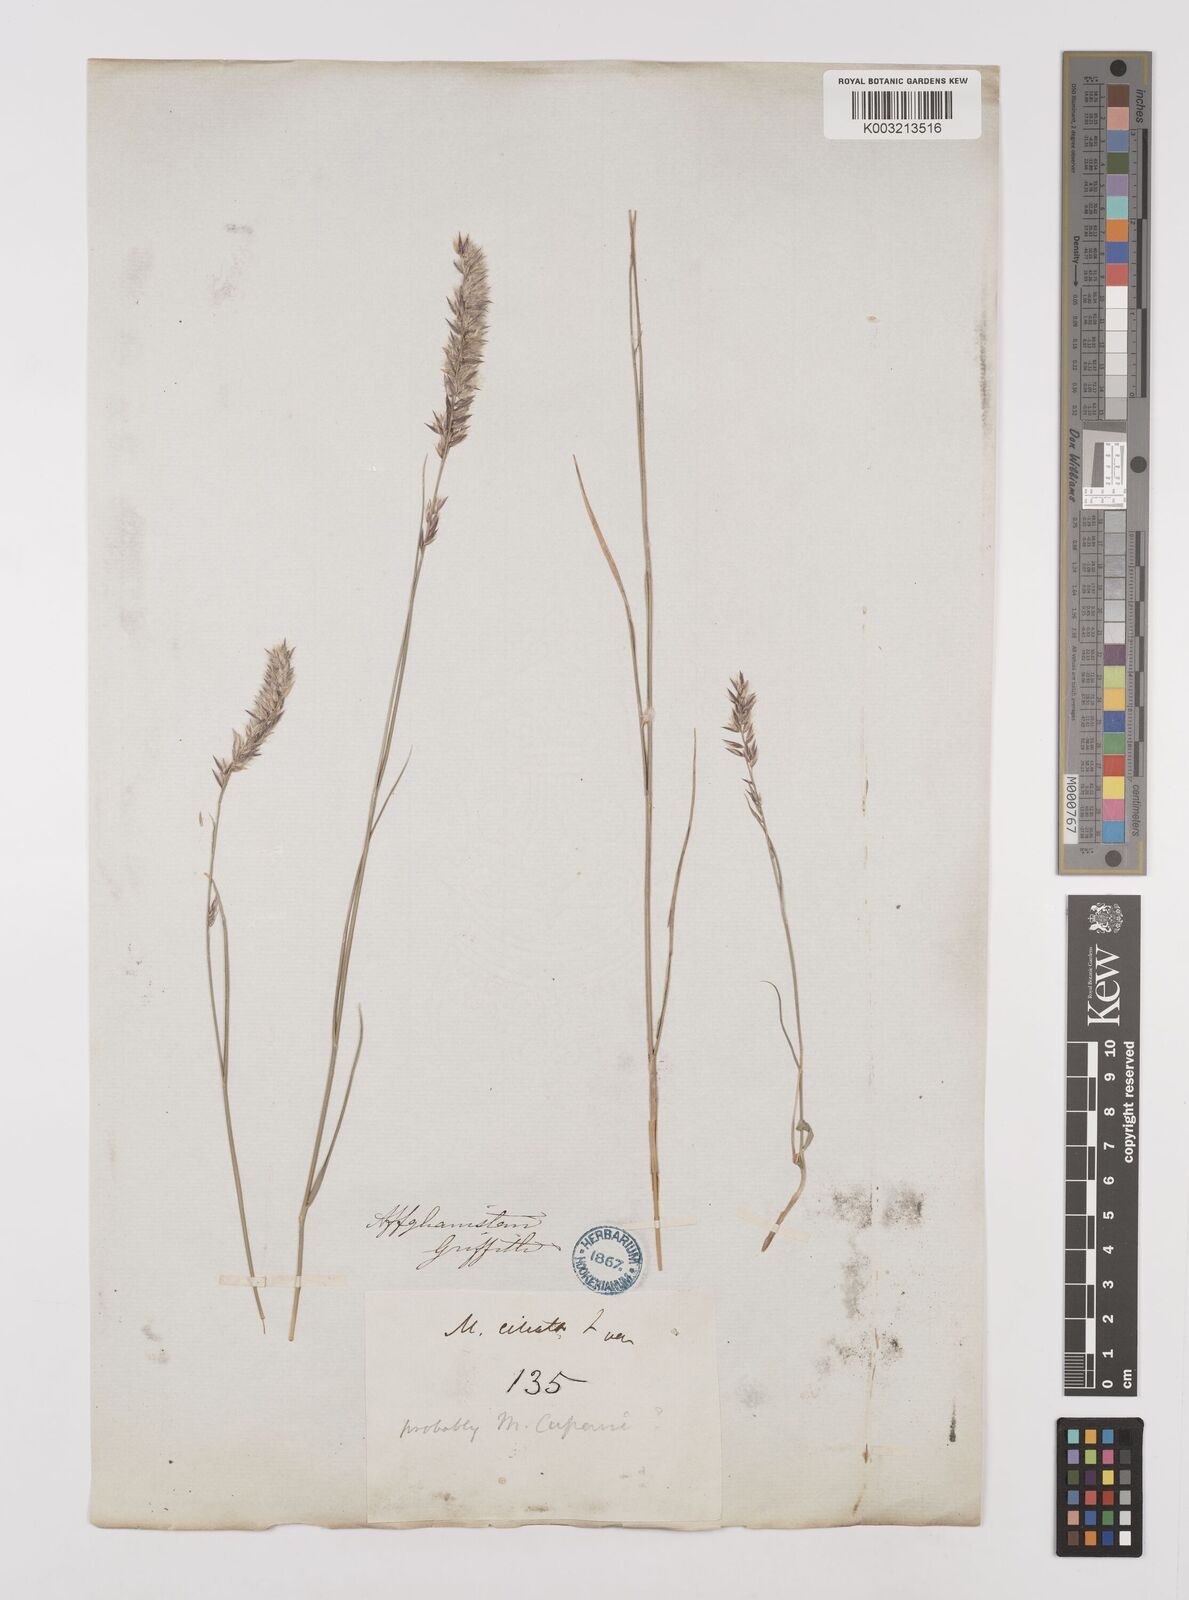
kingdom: Plantae
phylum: Tracheophyta
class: Liliopsida
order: Poales
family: Poaceae
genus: Melica
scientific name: Melica persica
